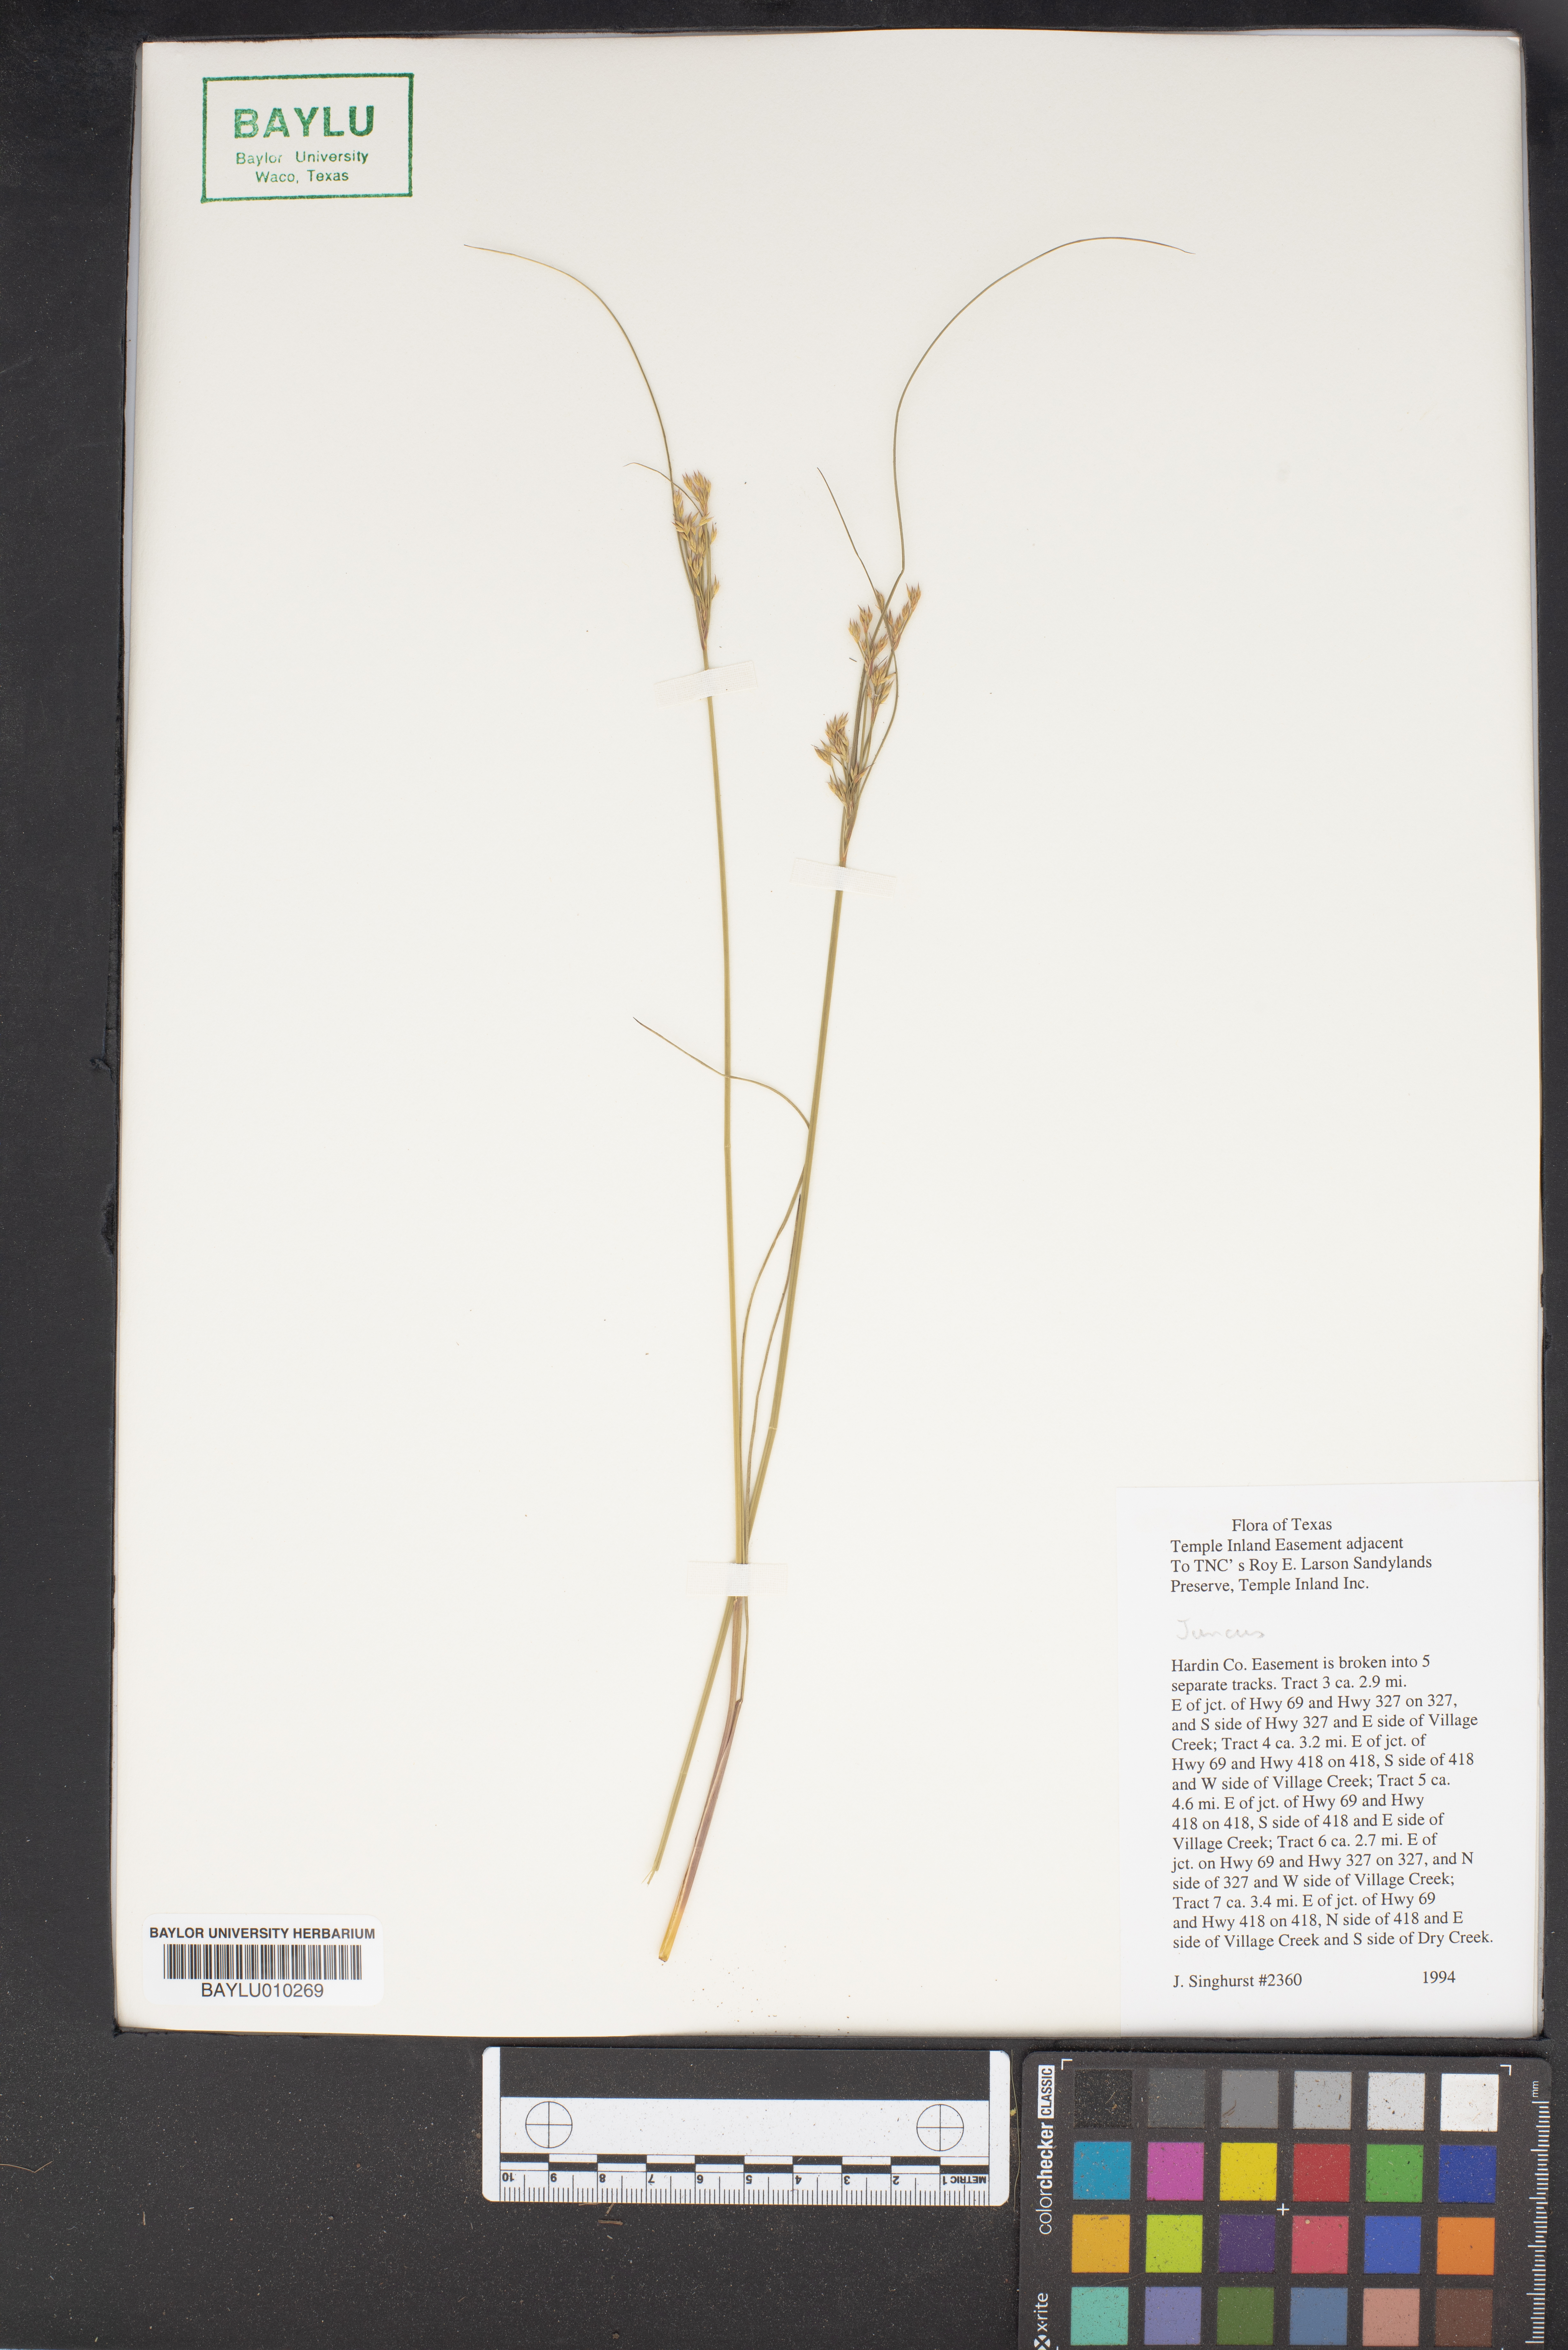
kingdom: Plantae
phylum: Tracheophyta
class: Liliopsida
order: Poales
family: Juncaceae
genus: Juncus
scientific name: Juncus
